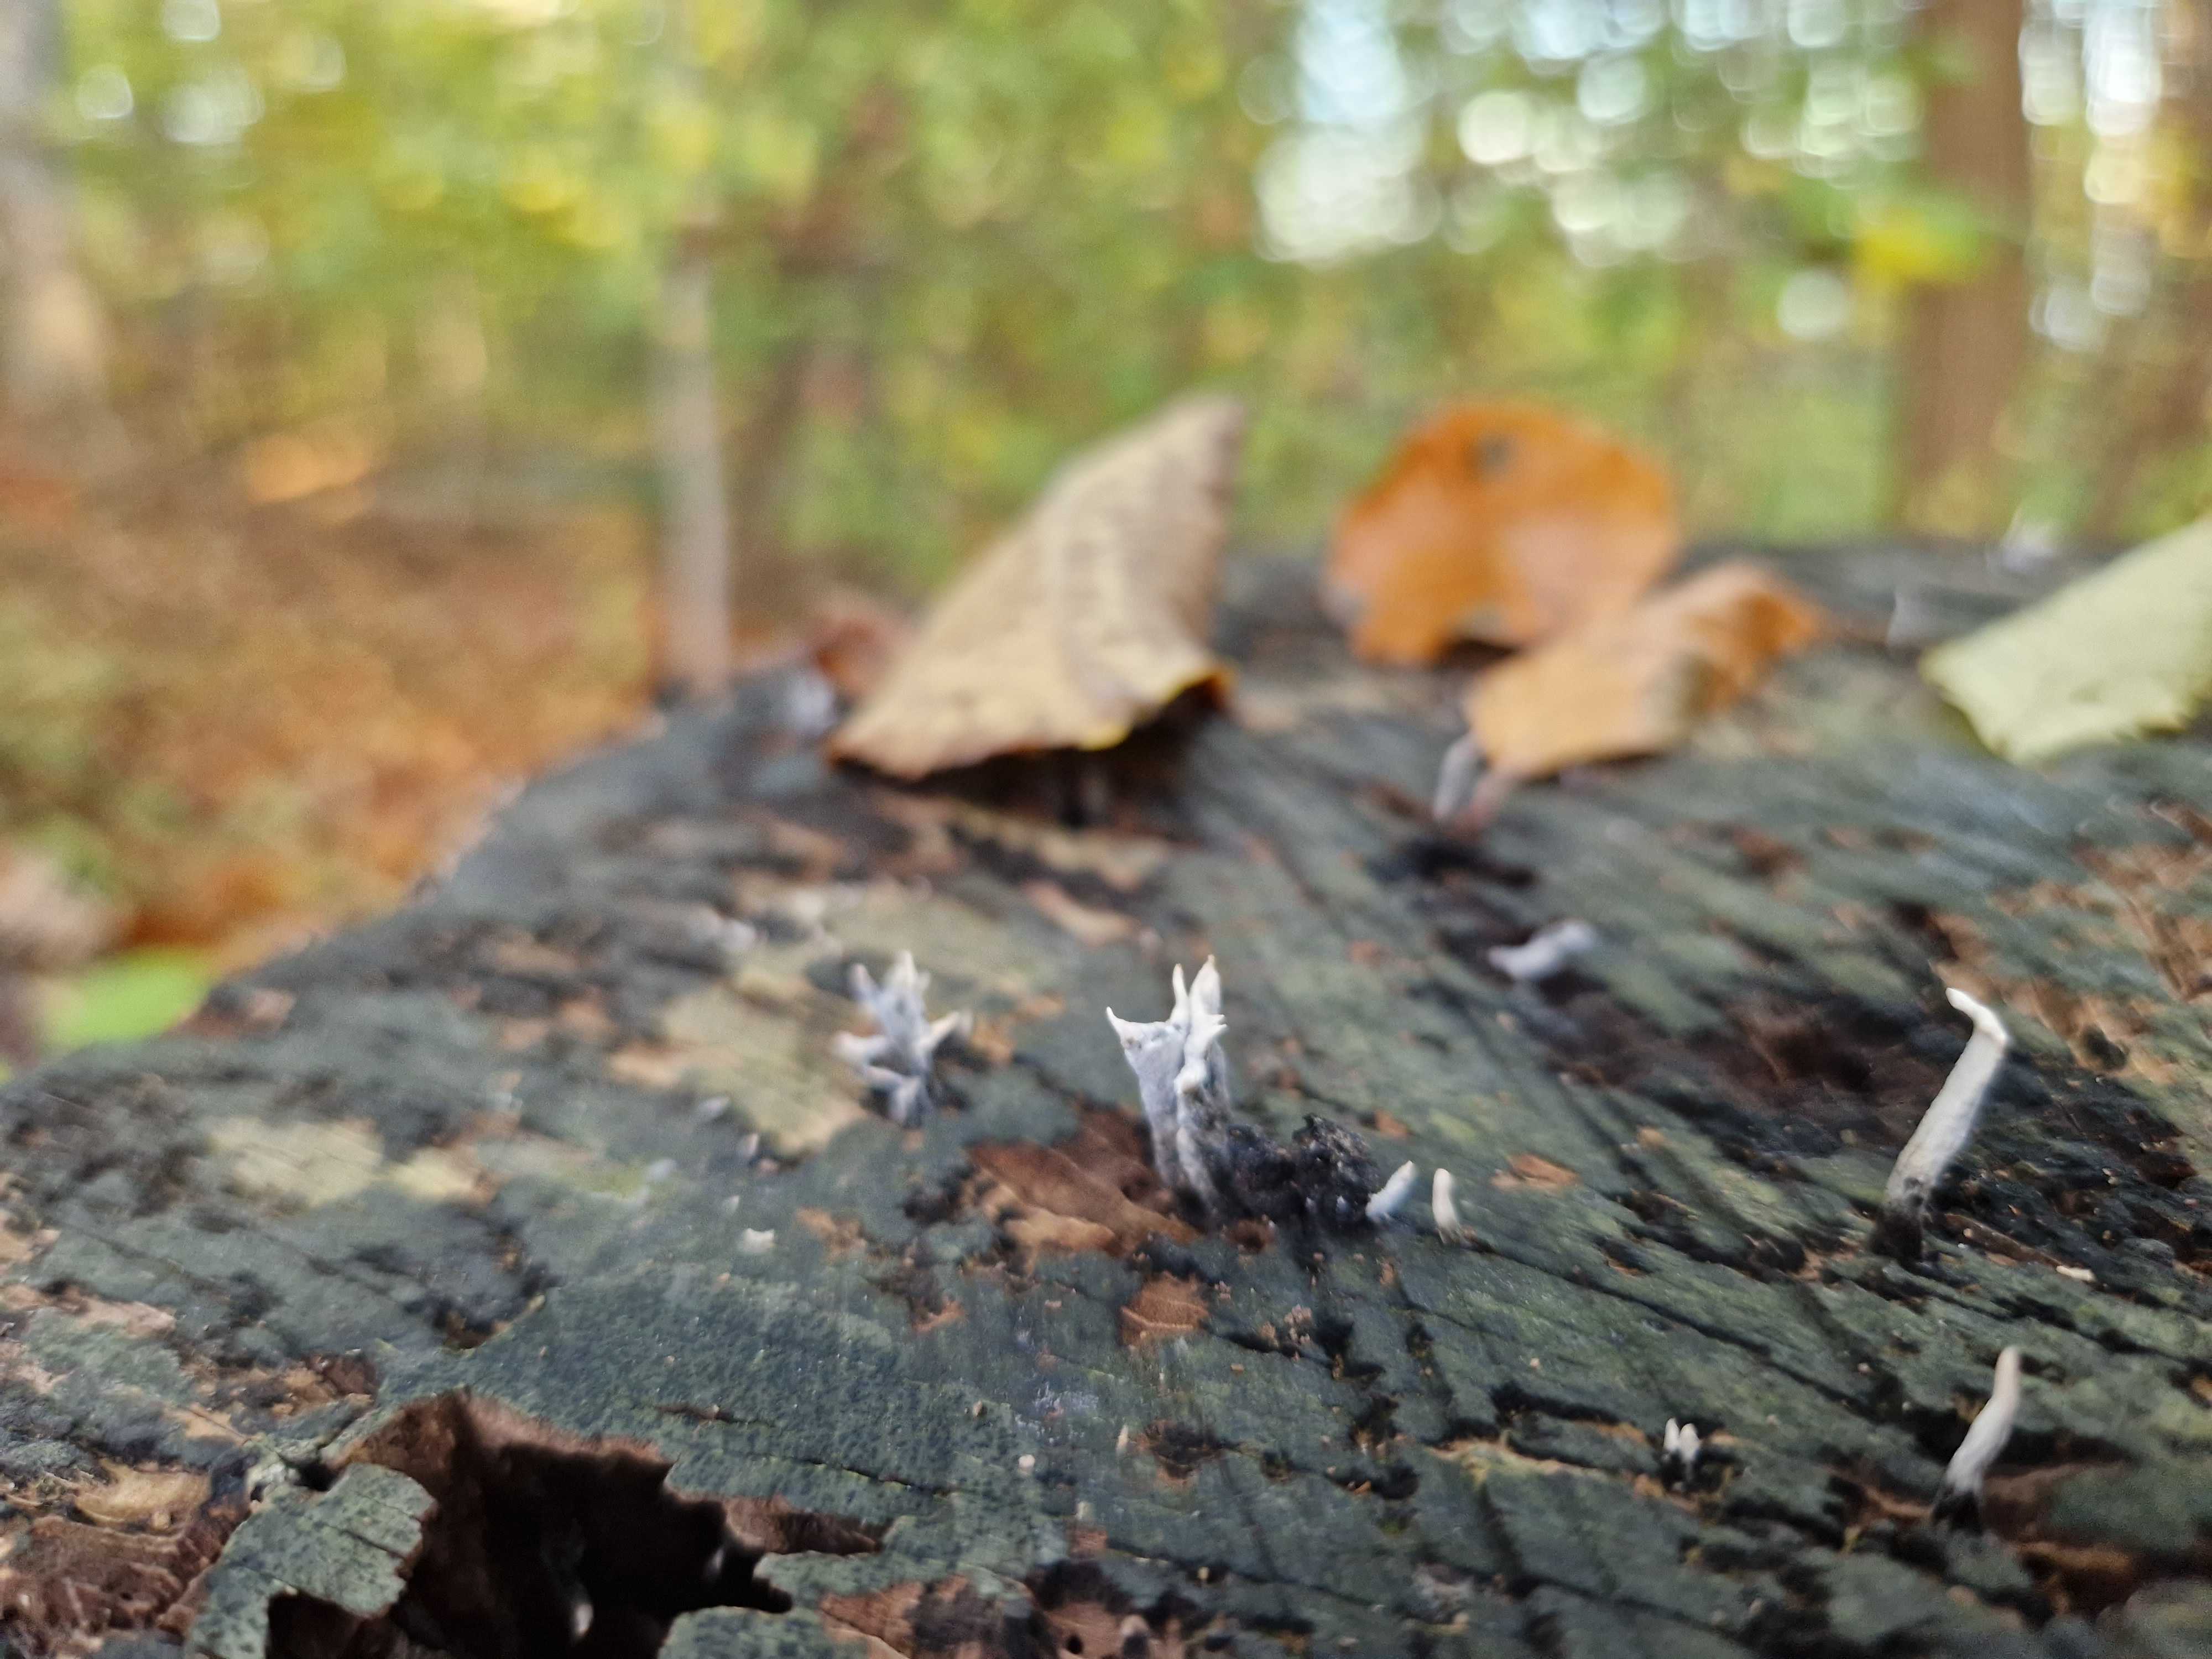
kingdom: Fungi
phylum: Ascomycota
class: Sordariomycetes
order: Xylariales
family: Xylariaceae
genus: Xylaria
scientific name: Xylaria hypoxylon
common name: grenet stødsvamp
